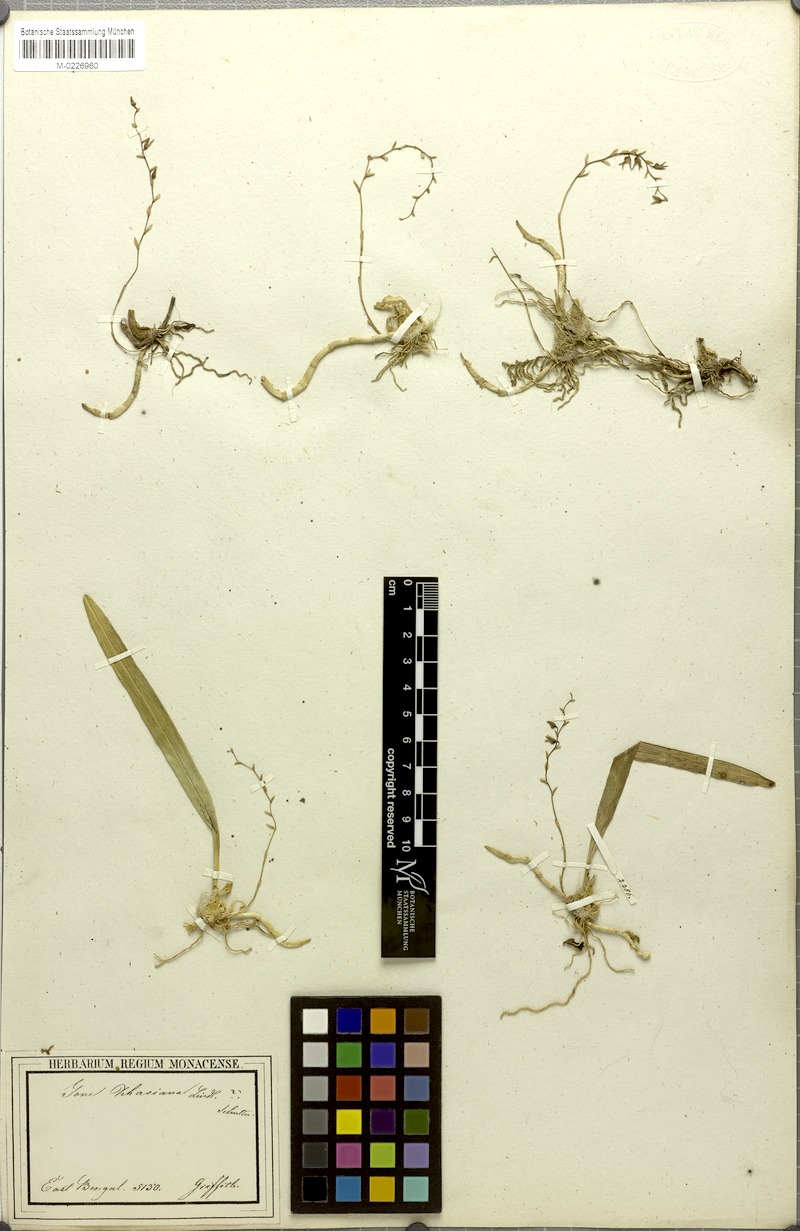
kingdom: Plantae
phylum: Tracheophyta
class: Liliopsida
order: Asparagales
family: Orchidaceae
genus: Bulbophyllum
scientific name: Bulbophyllum roseopictum
